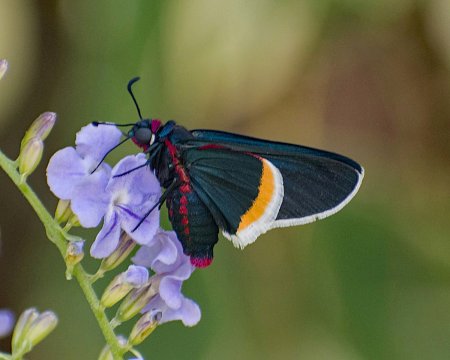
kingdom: Animalia
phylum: Arthropoda
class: Insecta
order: Lepidoptera
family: Hesperiidae
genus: Mysoria
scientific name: Mysoria barcastus
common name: Royal Firetip
